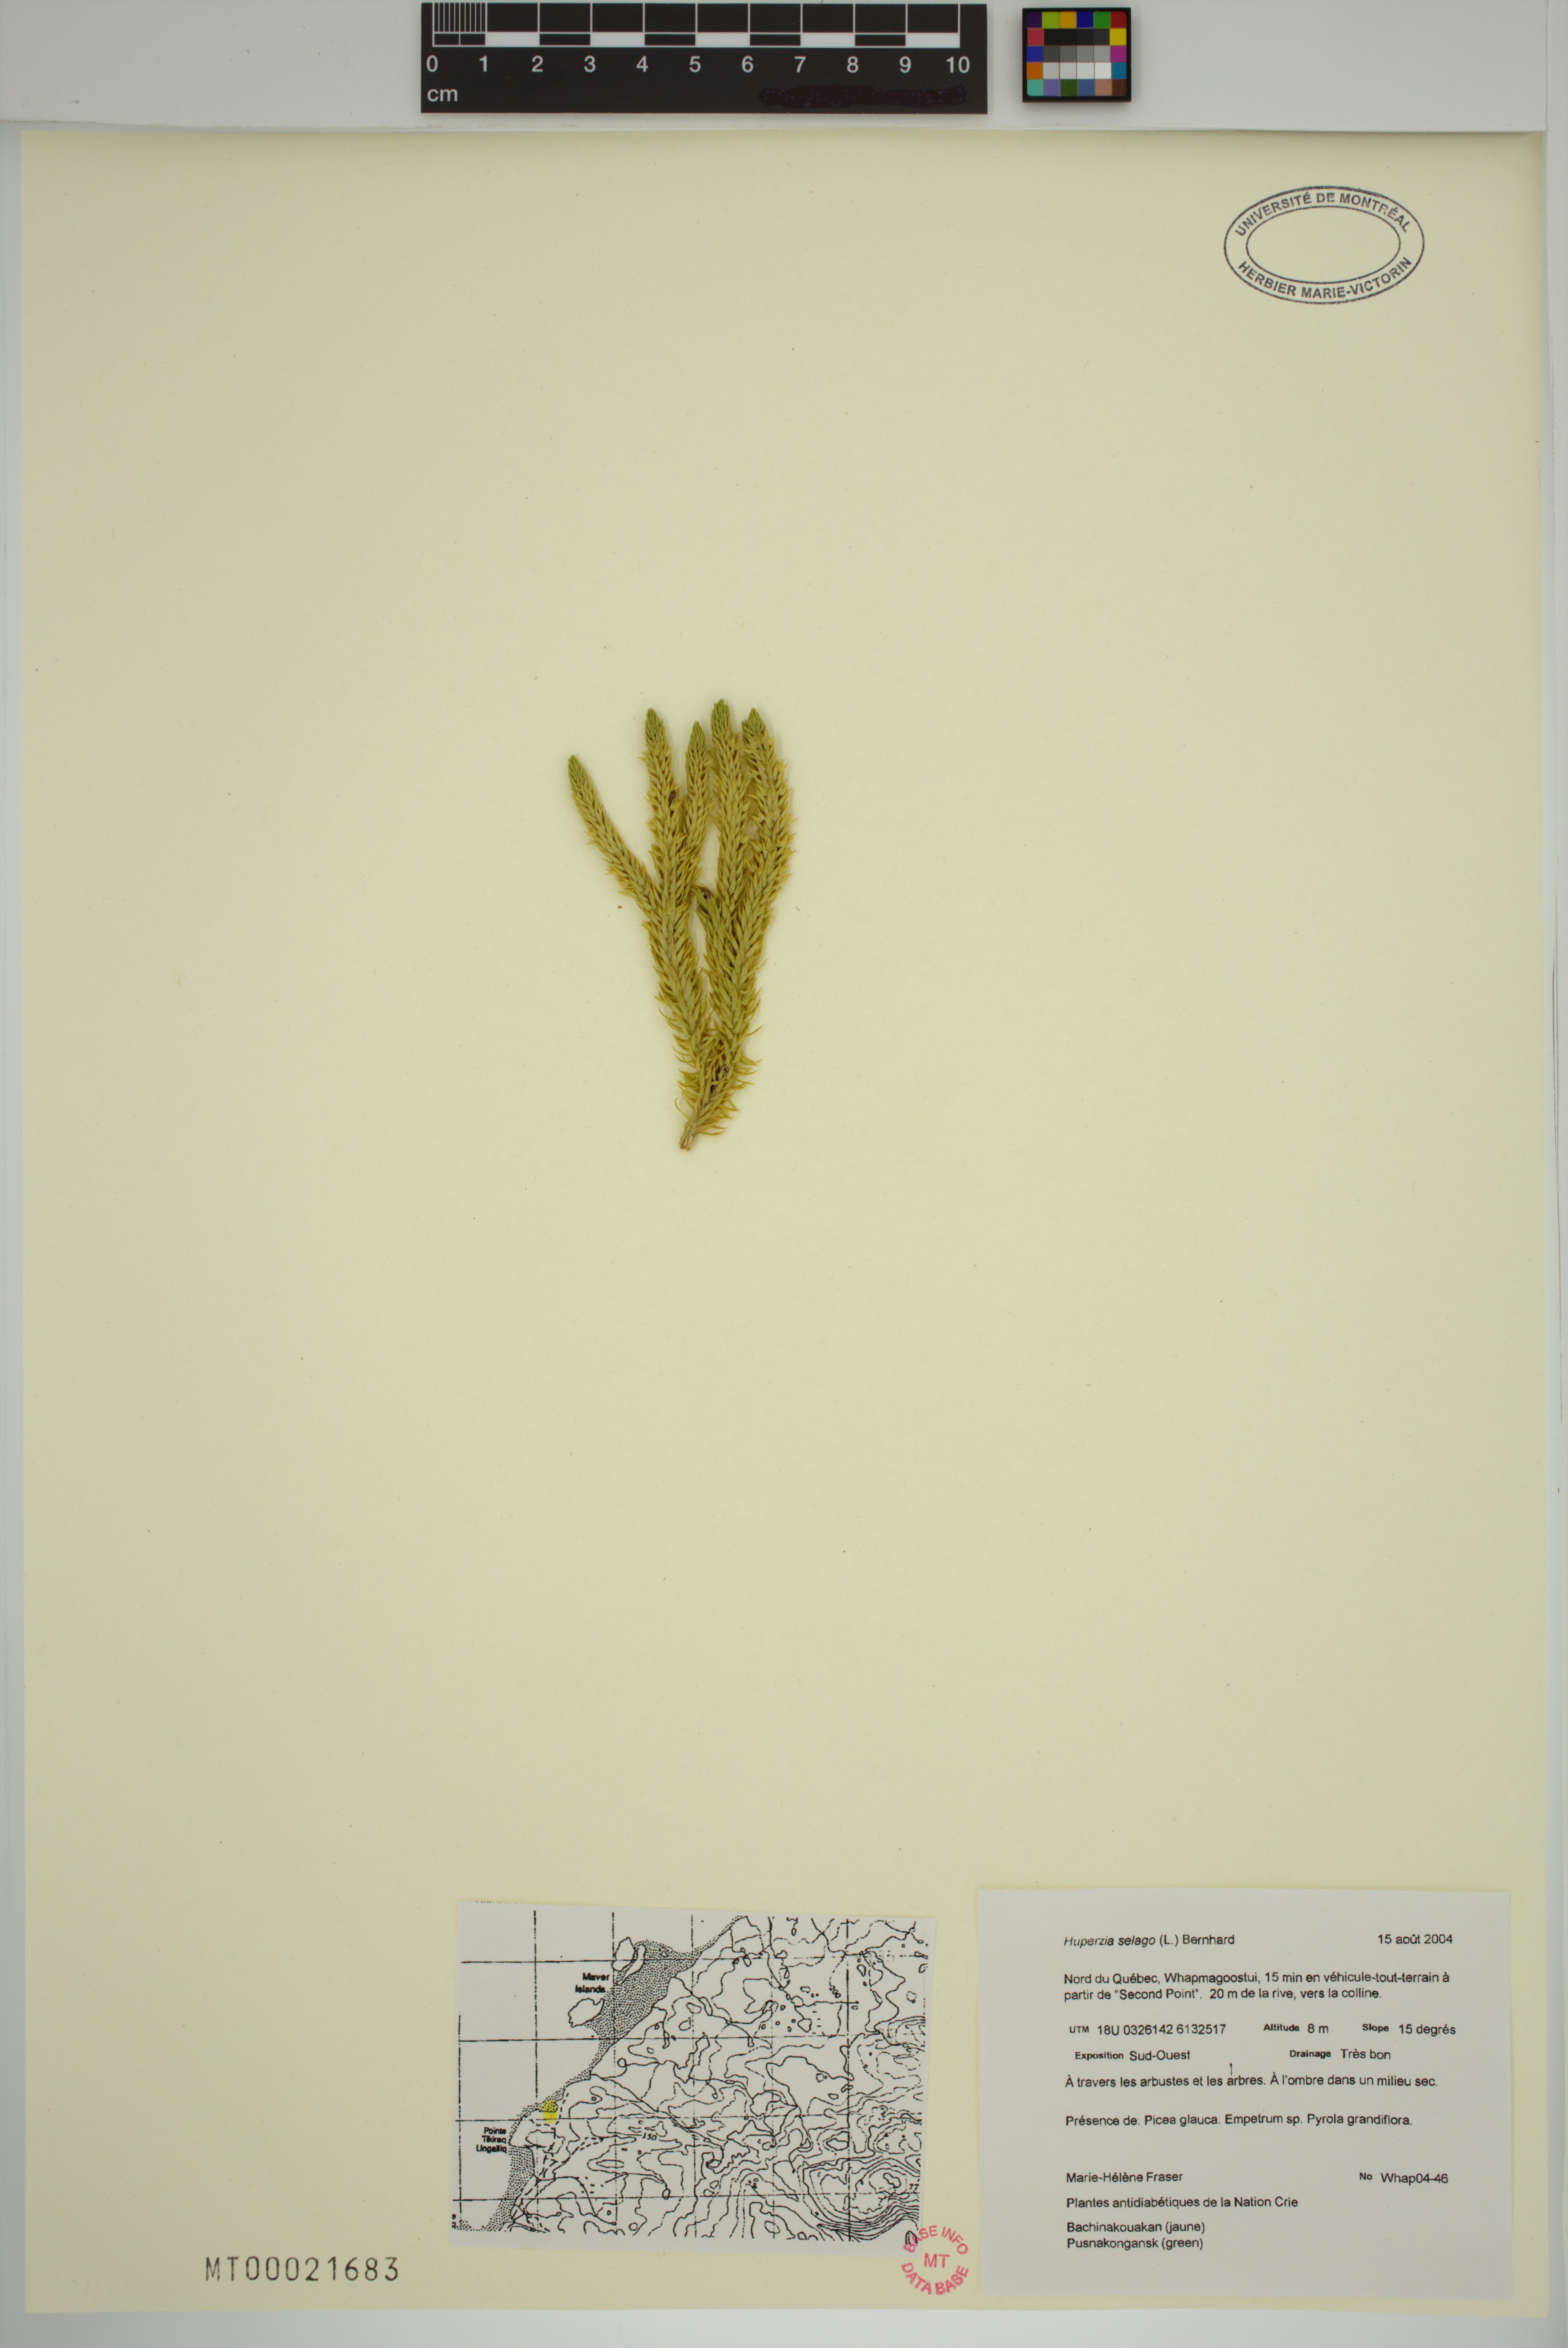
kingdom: Plantae
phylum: Tracheophyta
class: Lycopodiopsida
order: Lycopodiales
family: Lycopodiaceae
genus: Huperzia
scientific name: Huperzia selago
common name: Northern firmoss
